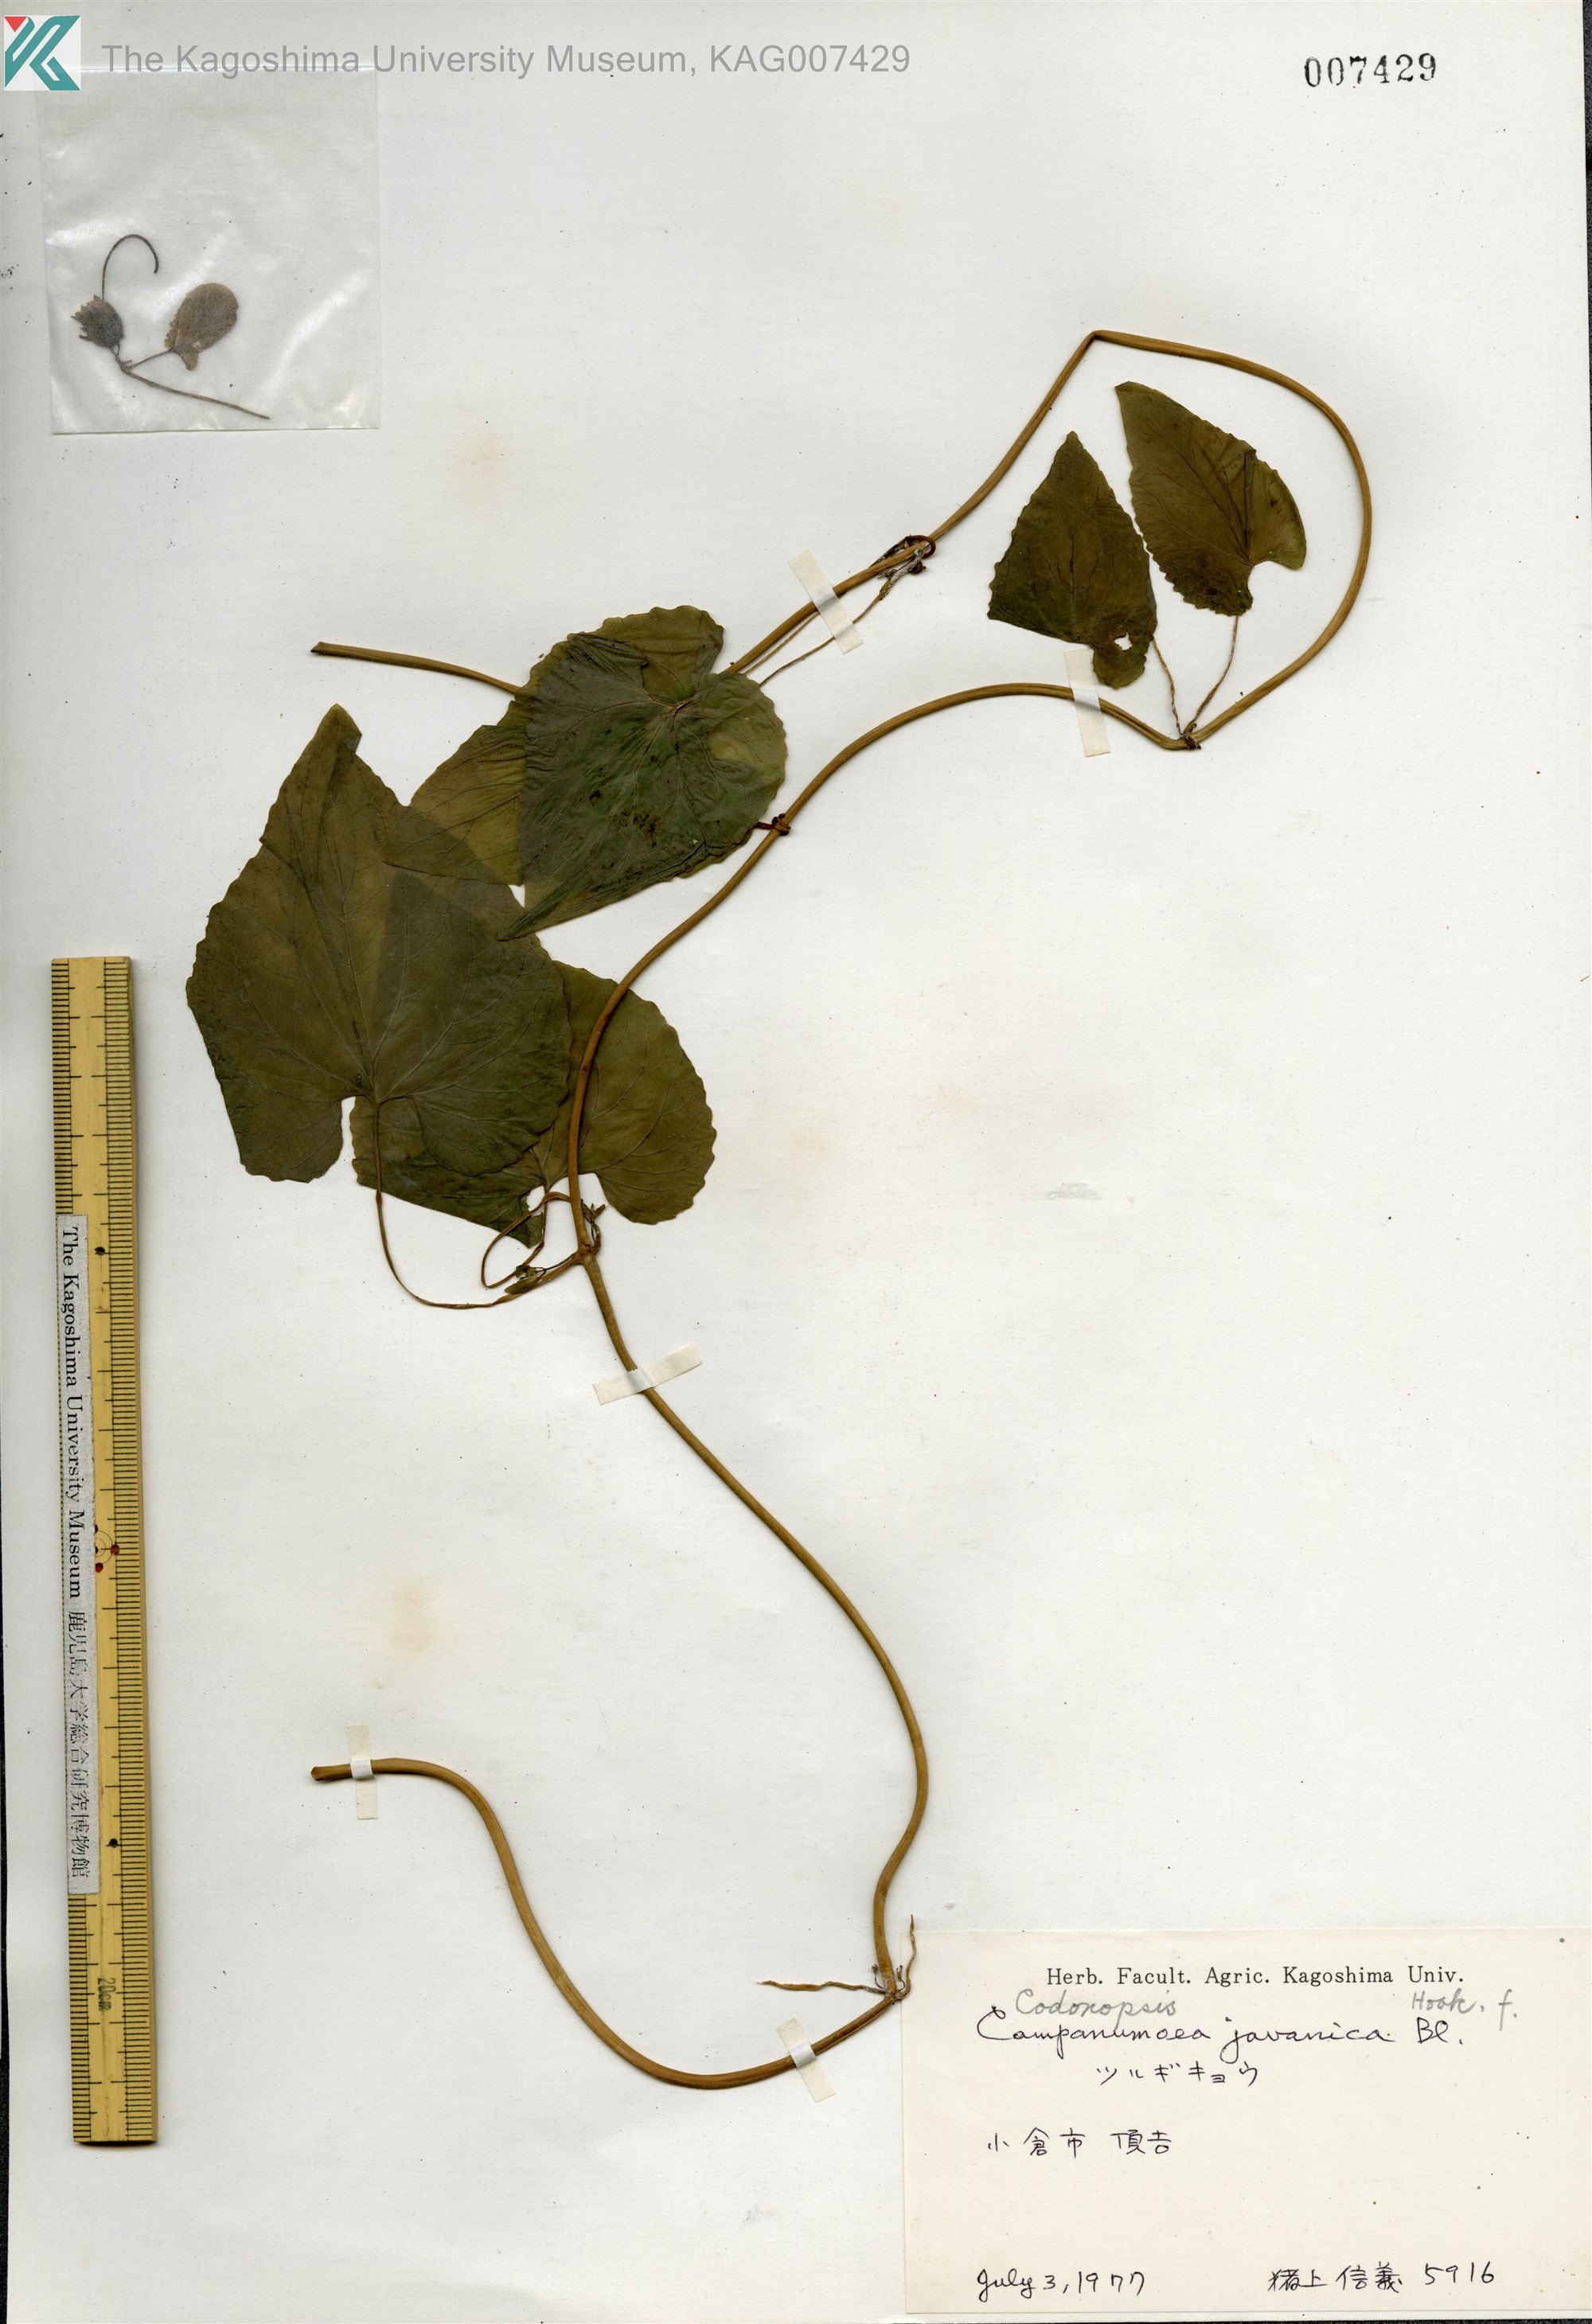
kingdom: Plantae
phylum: Tracheophyta
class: Magnoliopsida
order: Asterales
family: Campanulaceae
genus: Codonopsis
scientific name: Codonopsis javanica
